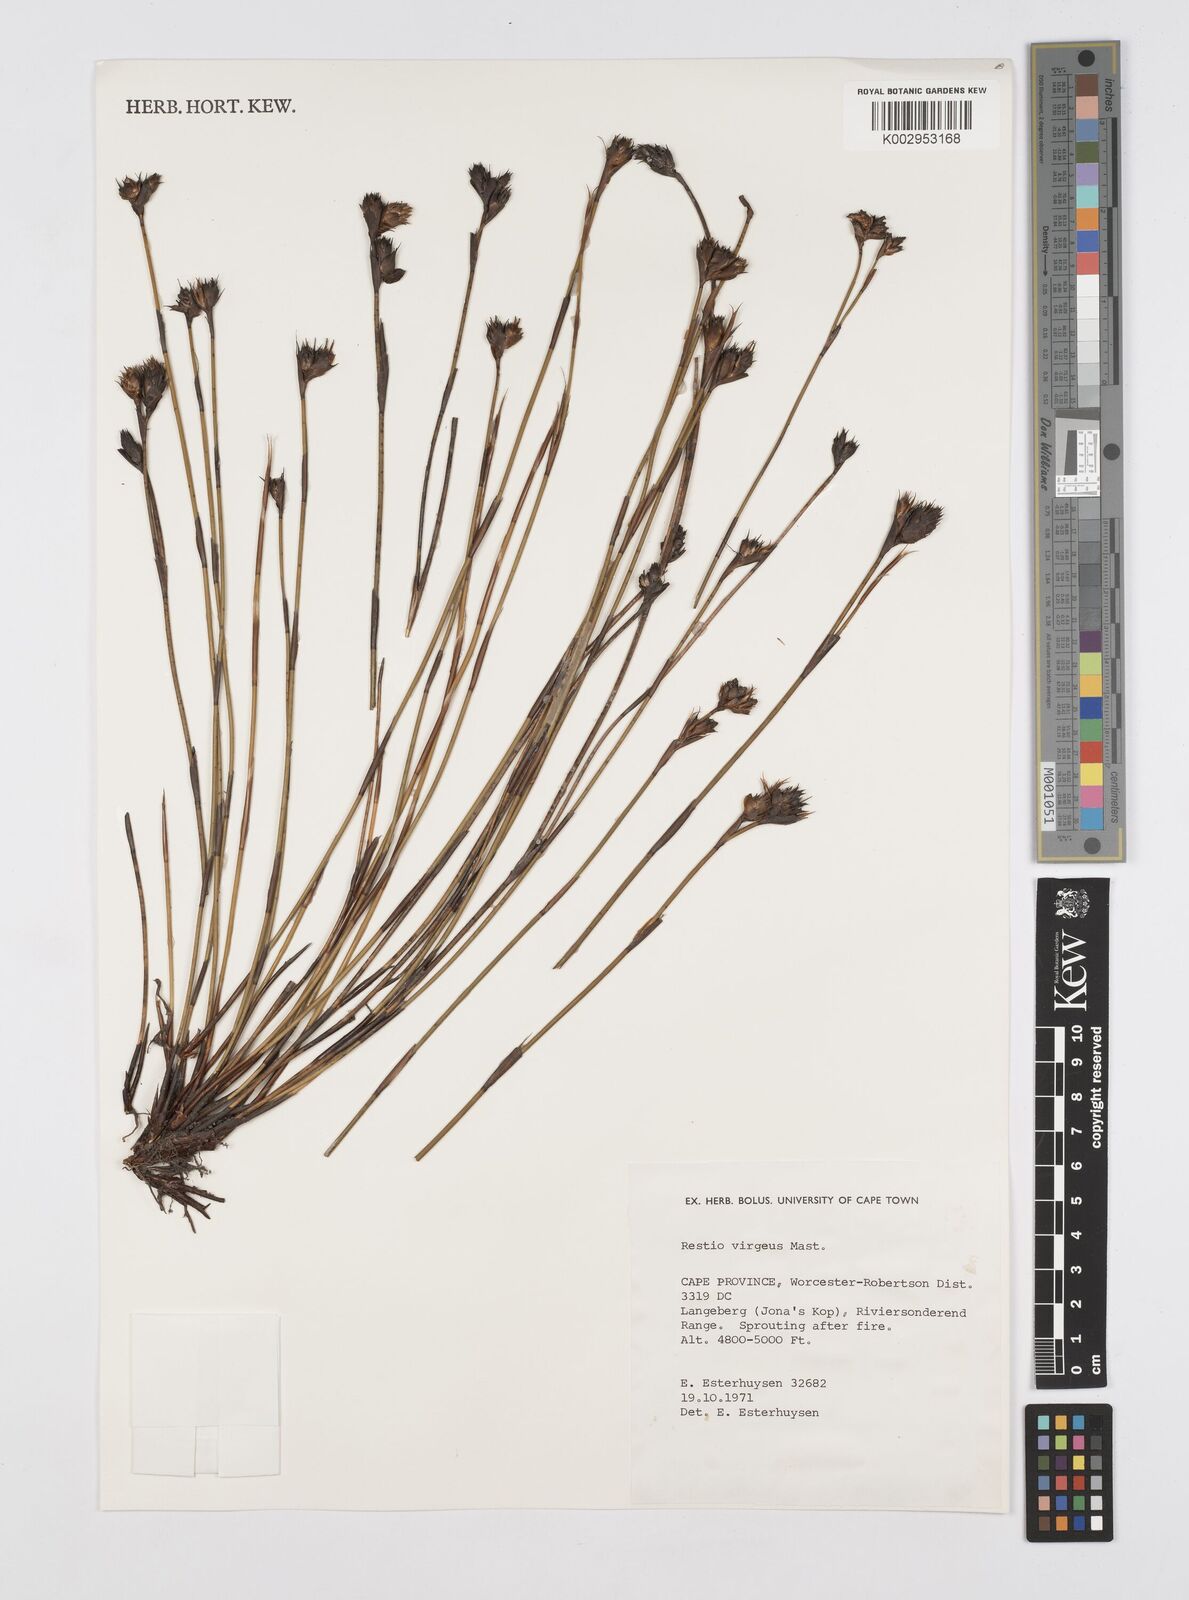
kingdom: Plantae
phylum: Tracheophyta
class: Liliopsida
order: Poales
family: Restionaceae
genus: Restio
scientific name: Restio virgeus
